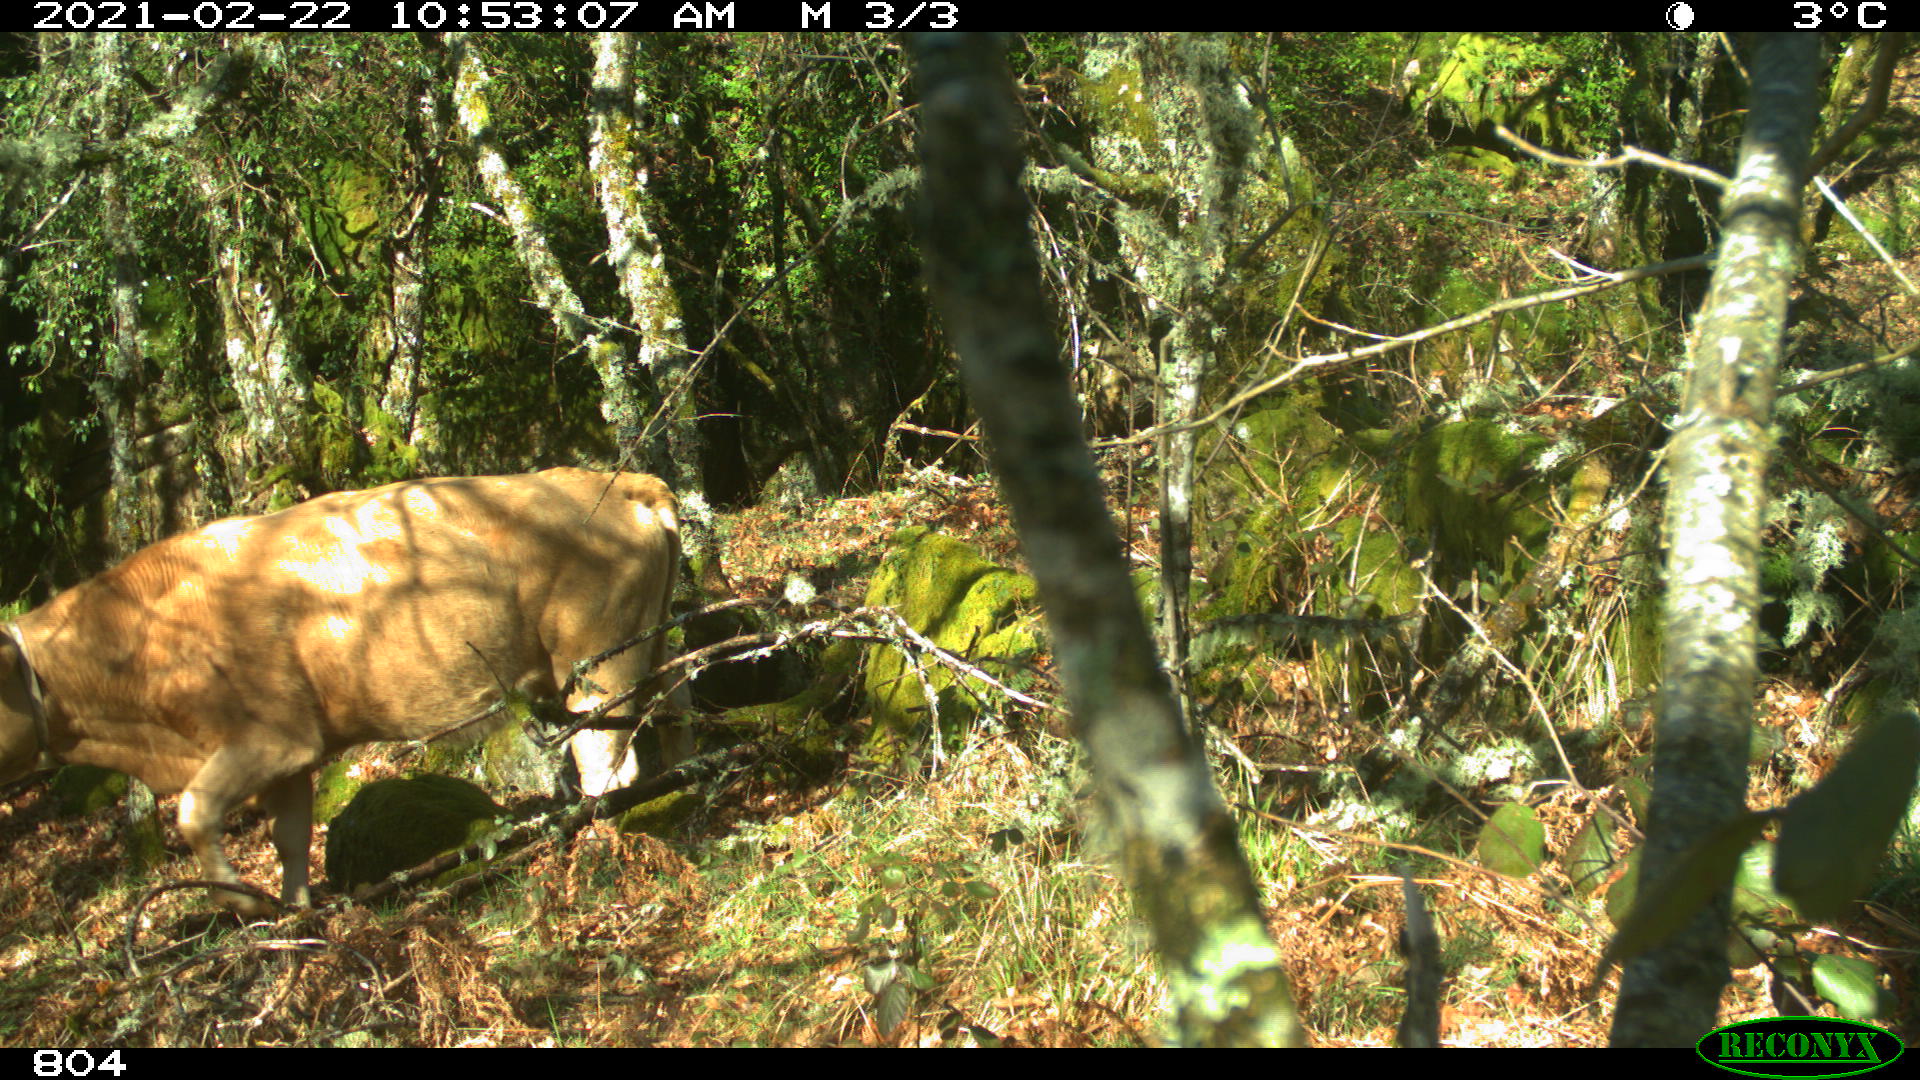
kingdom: Animalia
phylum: Chordata
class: Mammalia
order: Artiodactyla
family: Bovidae
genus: Bos
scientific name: Bos taurus
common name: Domesticated cattle
